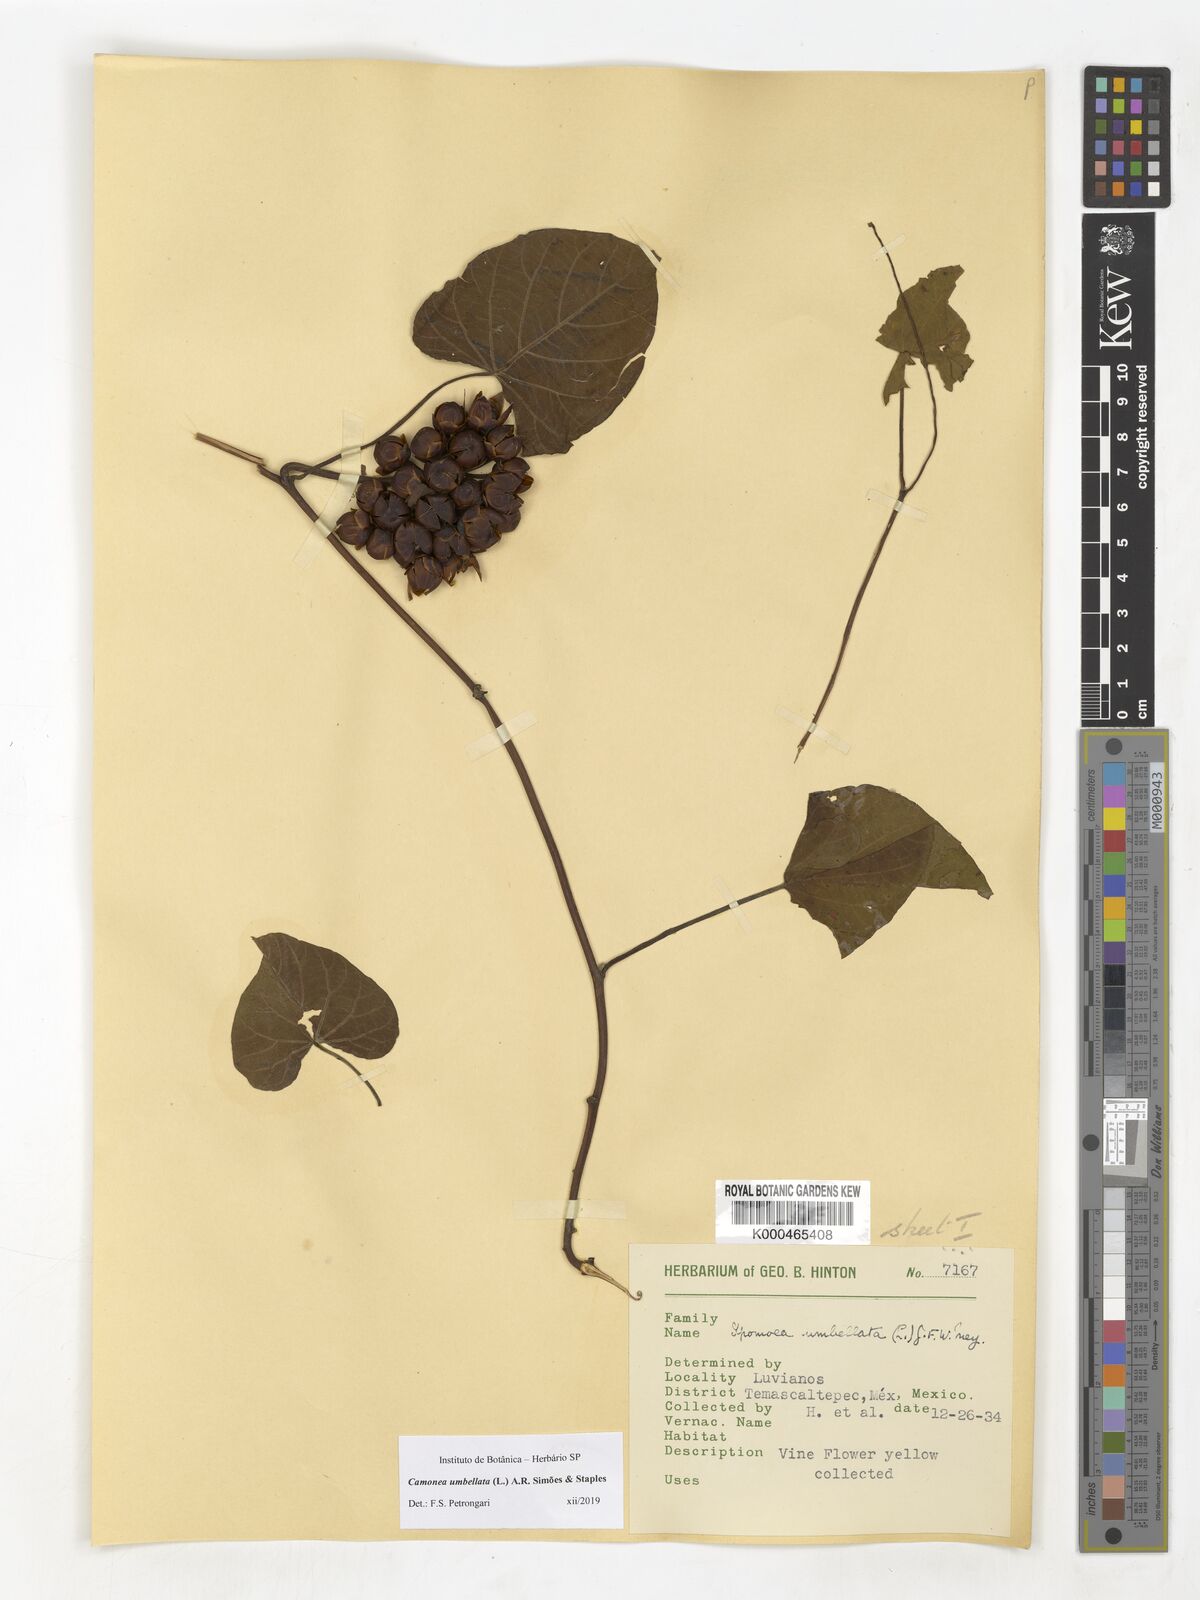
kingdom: Plantae
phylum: Tracheophyta
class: Magnoliopsida
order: Solanales
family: Convolvulaceae
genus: Camonea
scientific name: Camonea umbellata
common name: Hogvine
